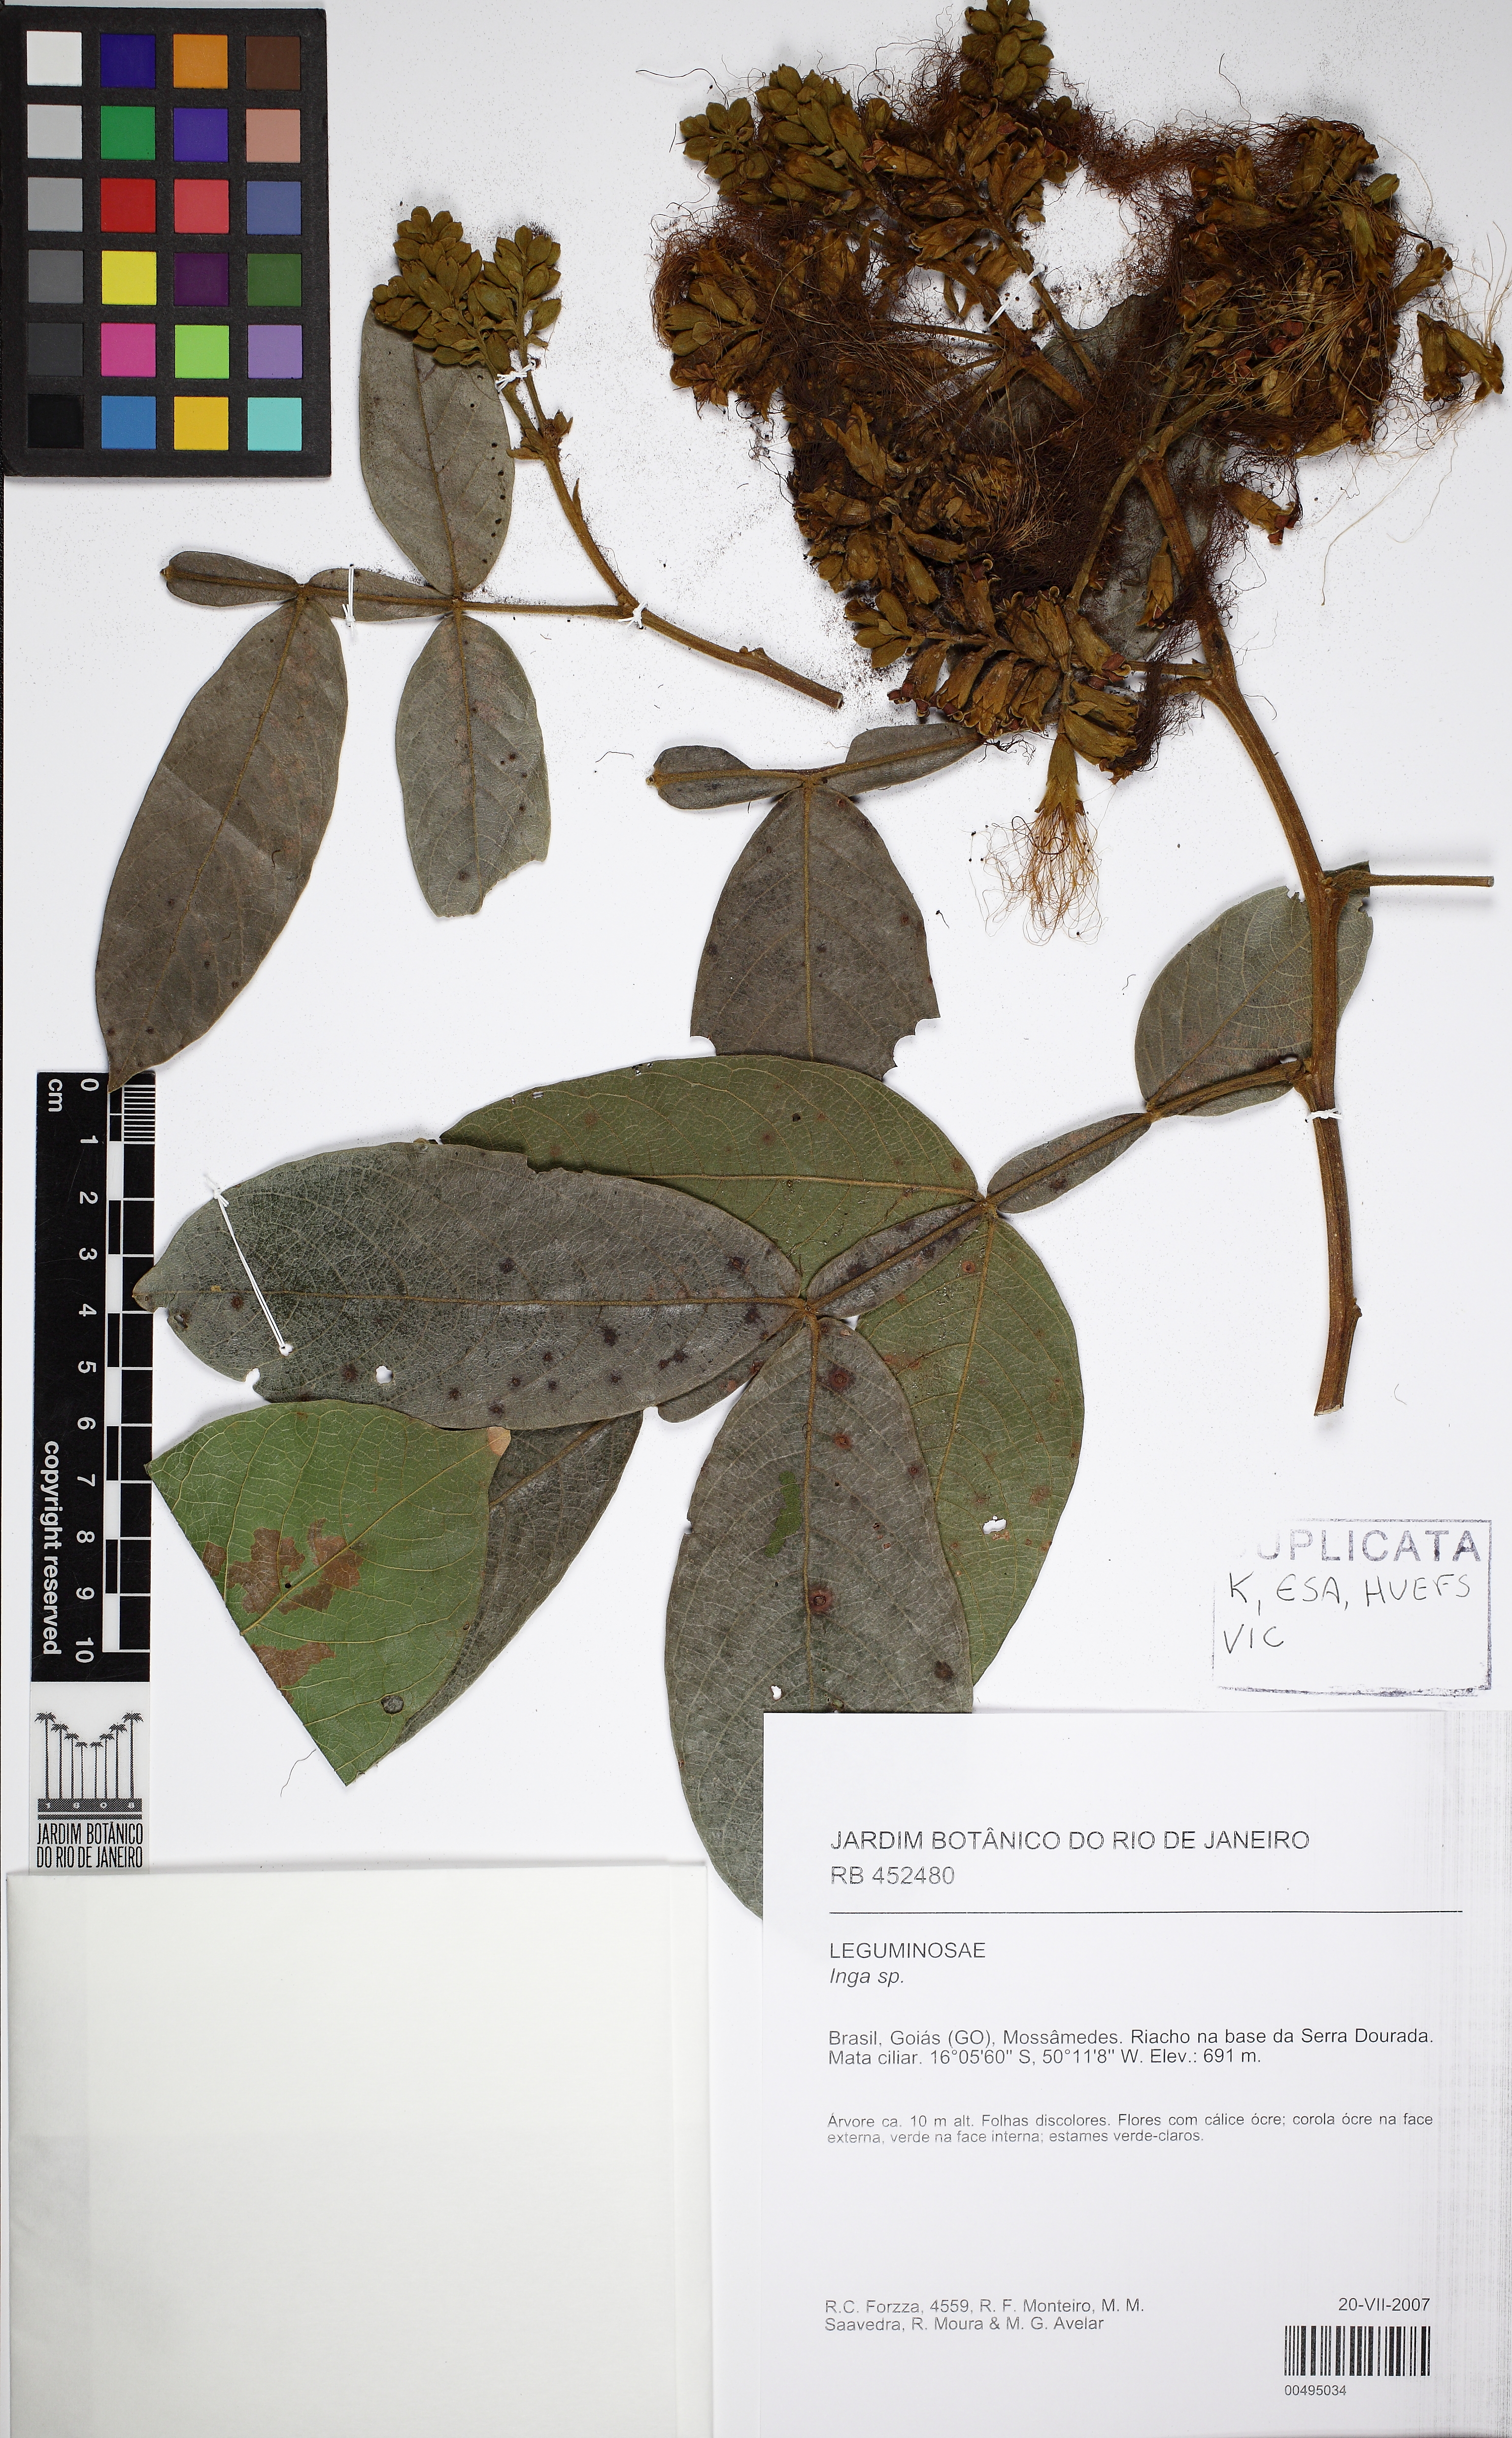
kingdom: Plantae
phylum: Tracheophyta
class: Magnoliopsida
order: Fabales
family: Fabaceae
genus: Inga
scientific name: Inga
